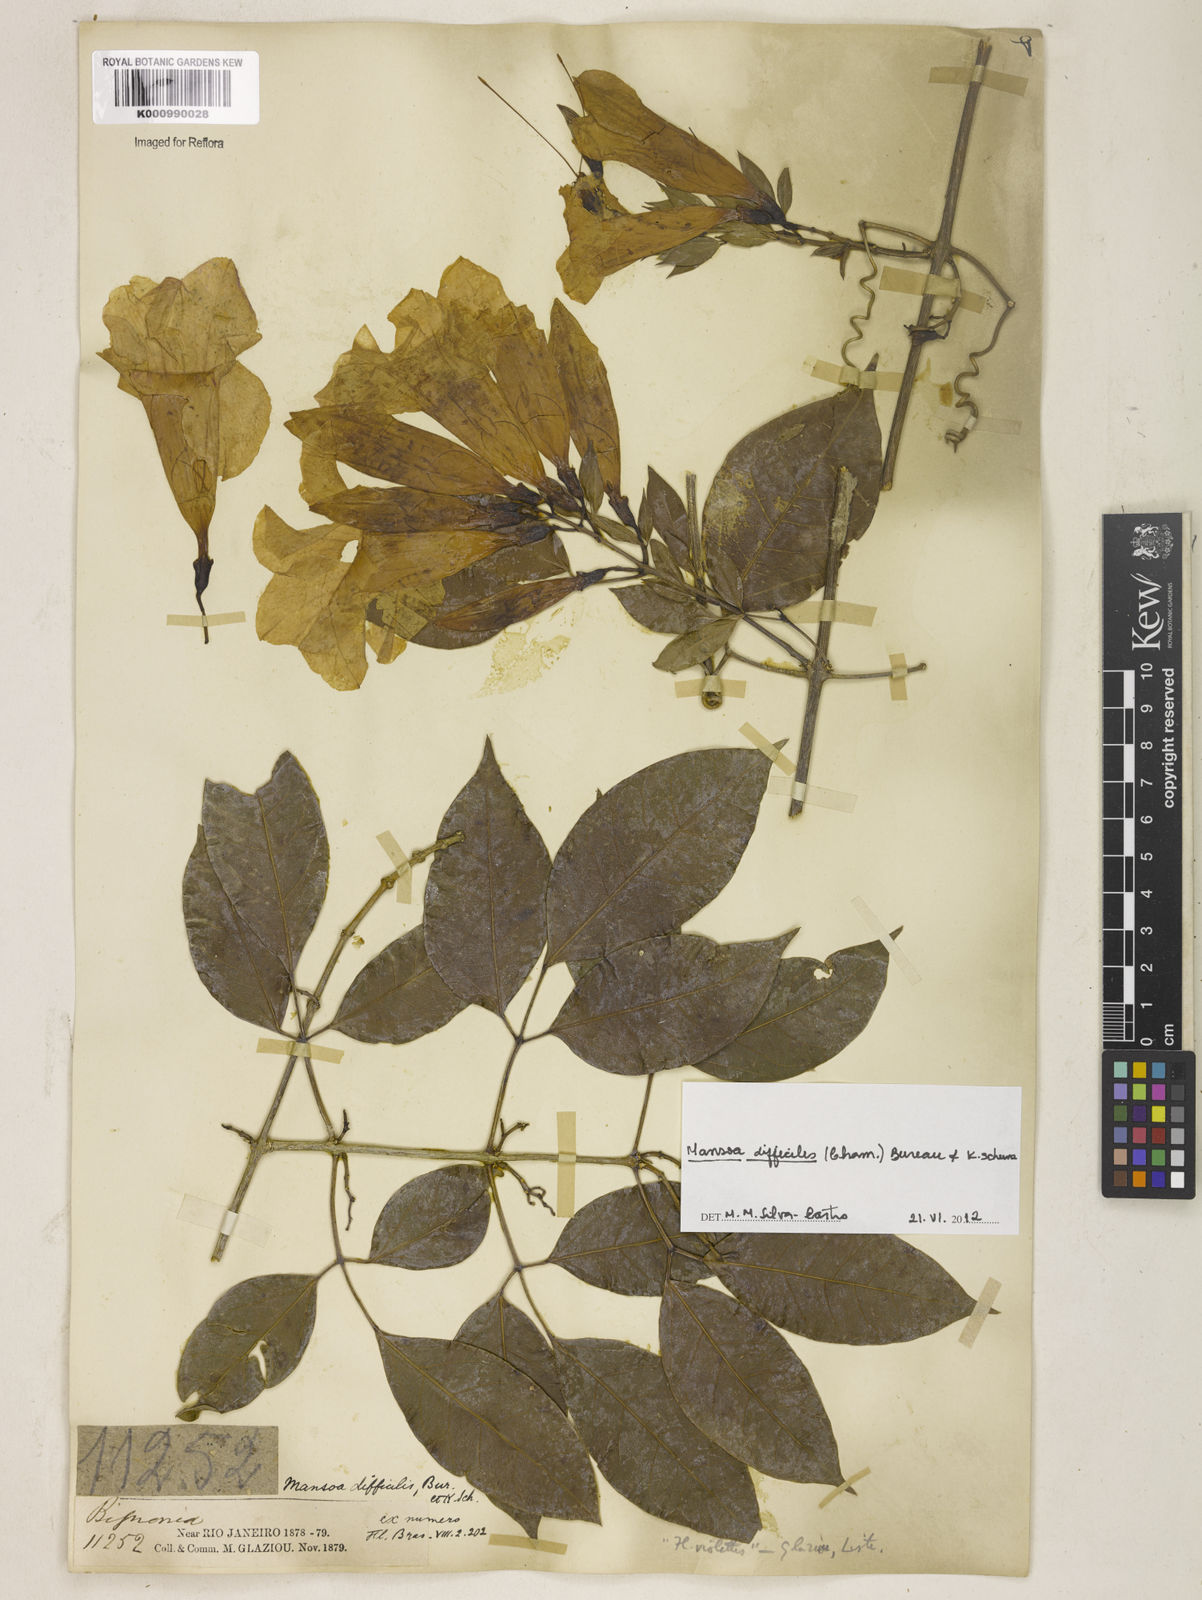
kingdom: Plantae
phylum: Tracheophyta
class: Magnoliopsida
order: Lamiales
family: Bignoniaceae
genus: Mansoa
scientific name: Mansoa difficilis
